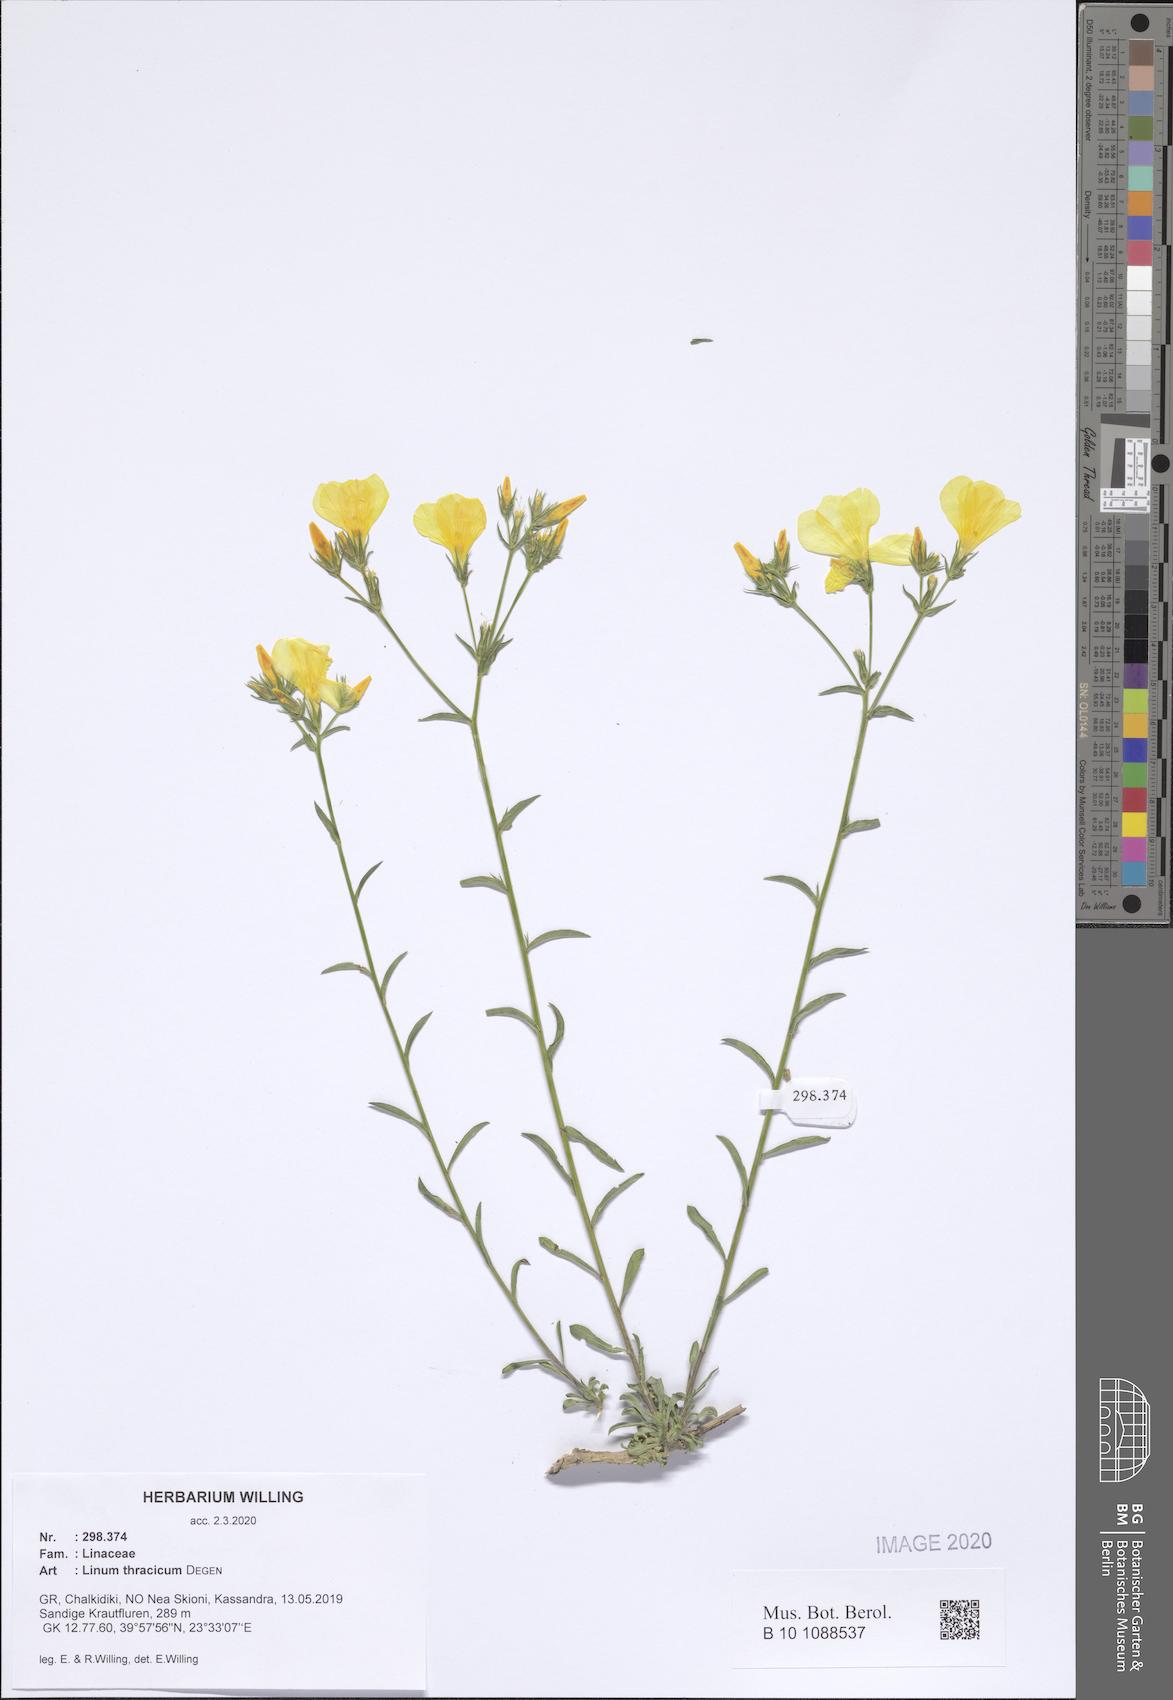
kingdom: Plantae
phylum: Tracheophyta
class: Magnoliopsida
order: Malpighiales
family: Linaceae
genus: Linum
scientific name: Linum thracicum
